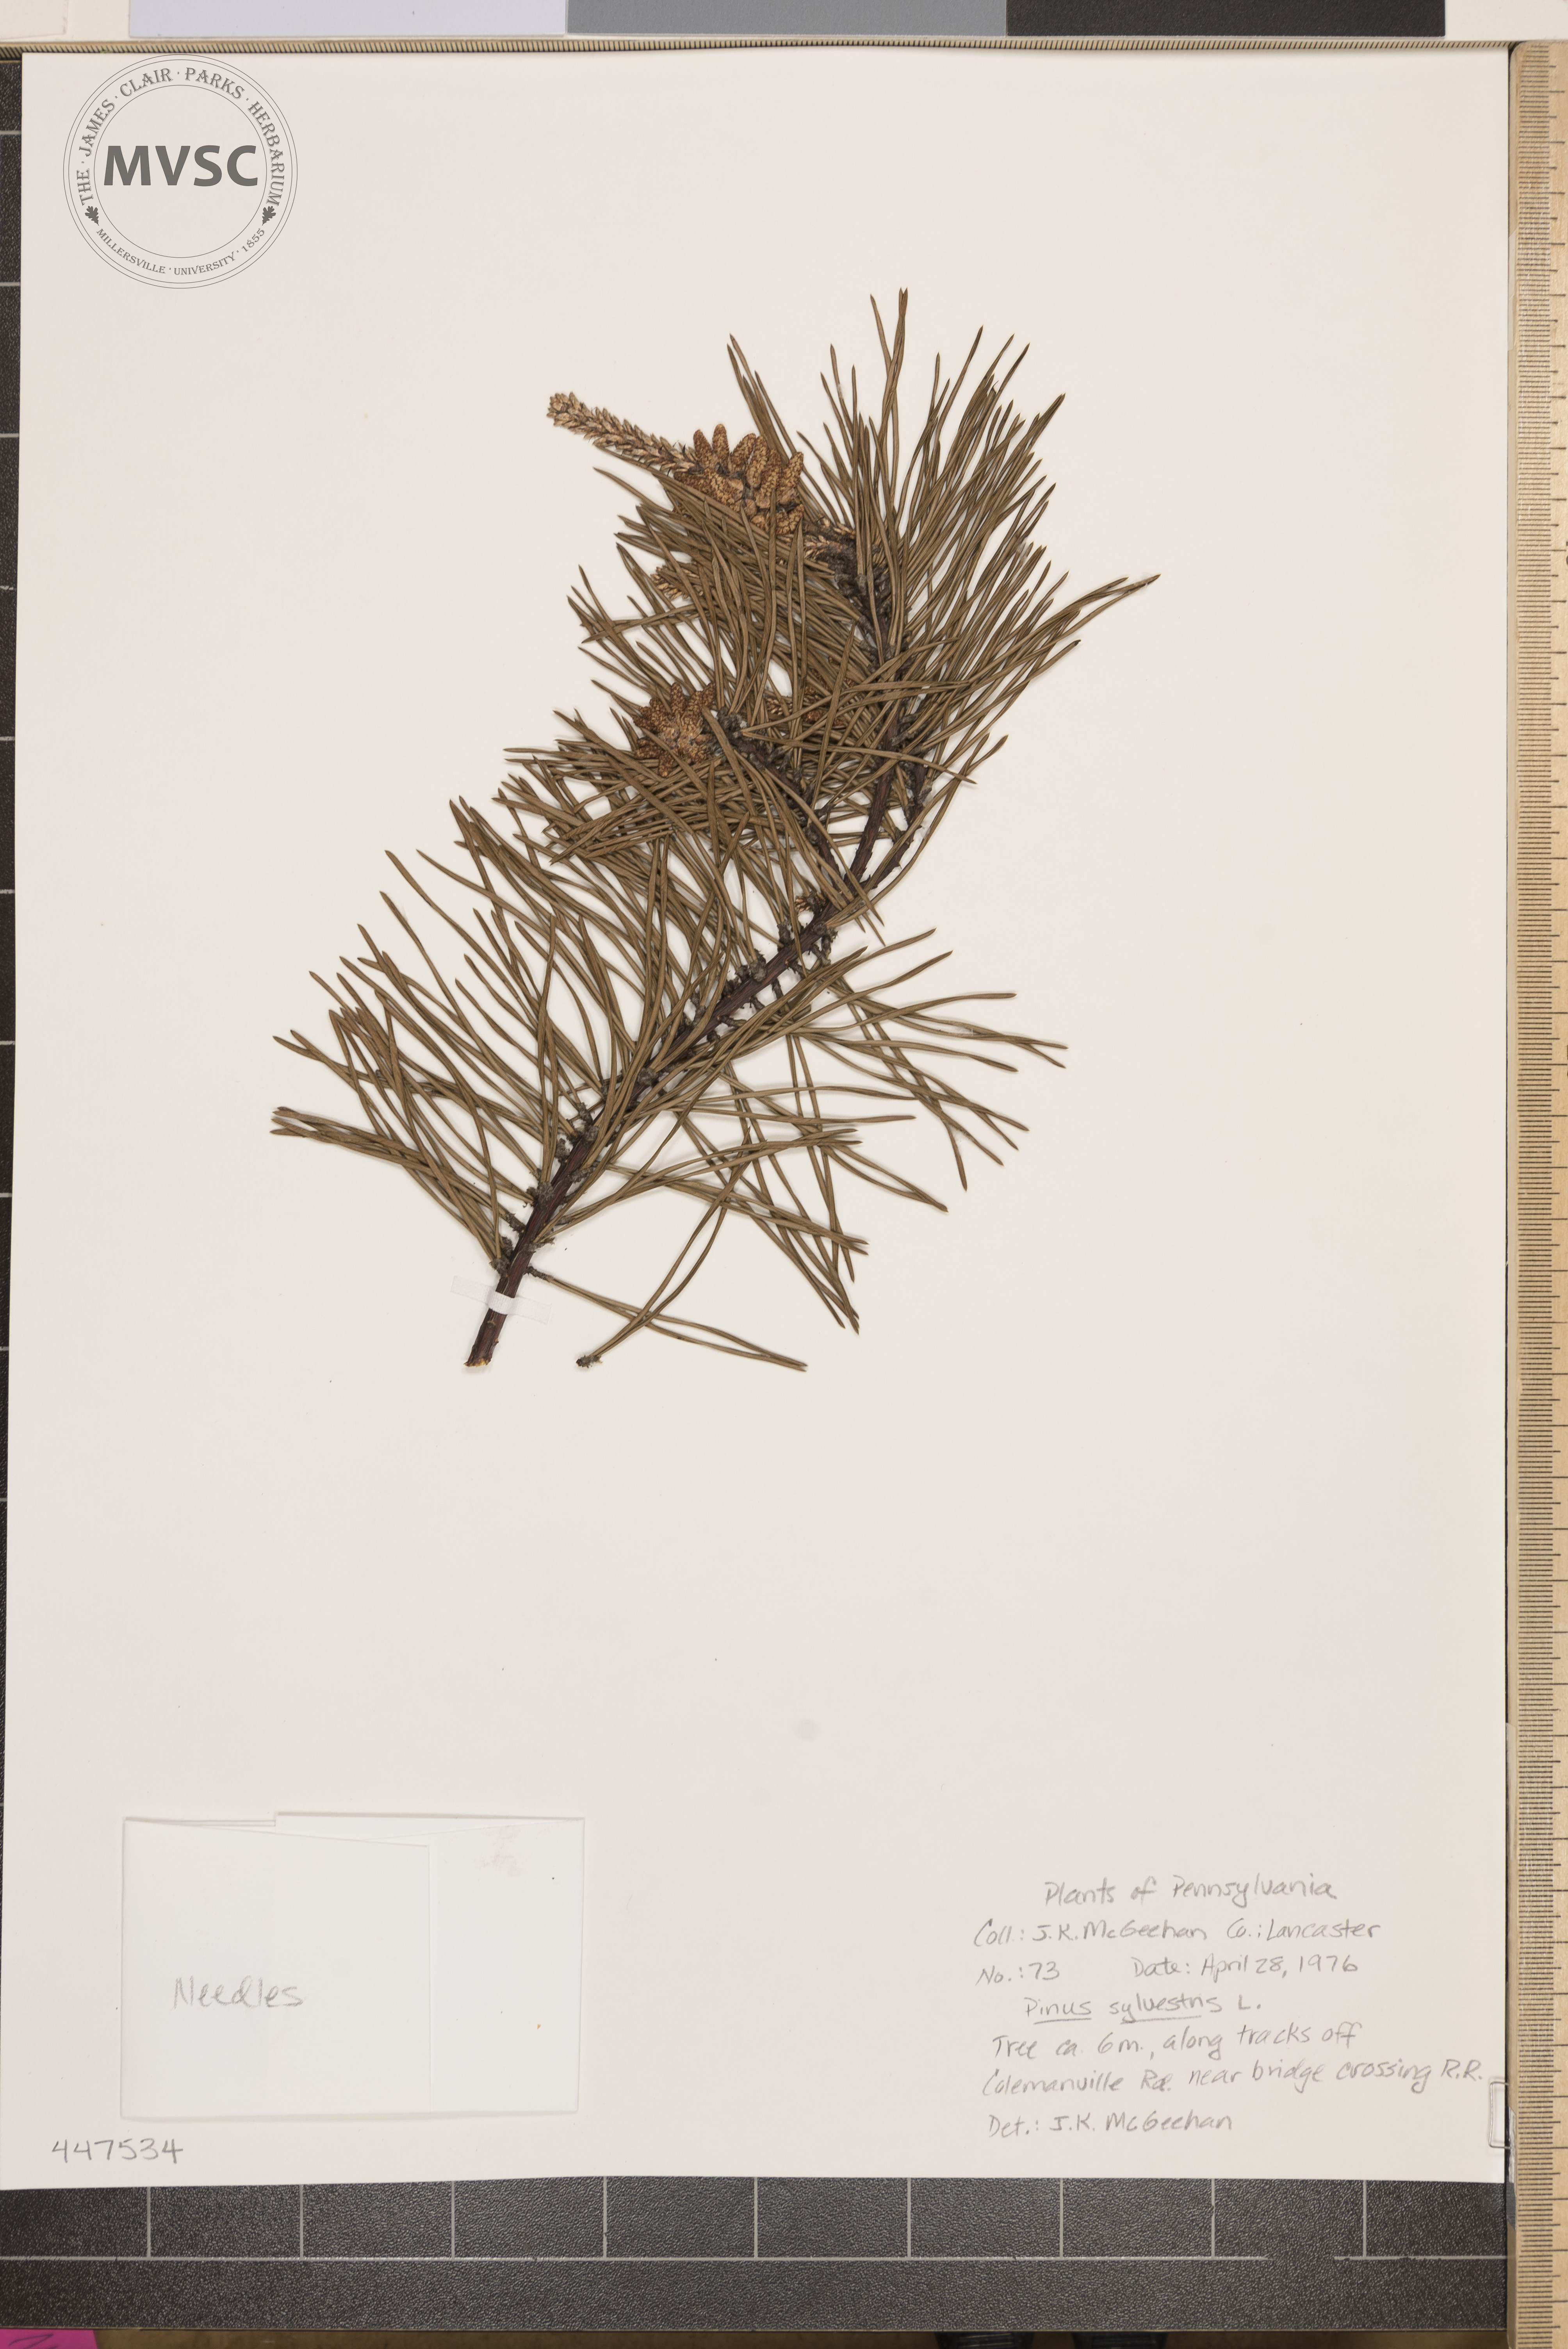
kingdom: Plantae
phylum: Tracheophyta
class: Pinopsida
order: Pinales
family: Pinaceae
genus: Pinus
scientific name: Pinus sylvestris
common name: Scots pine
